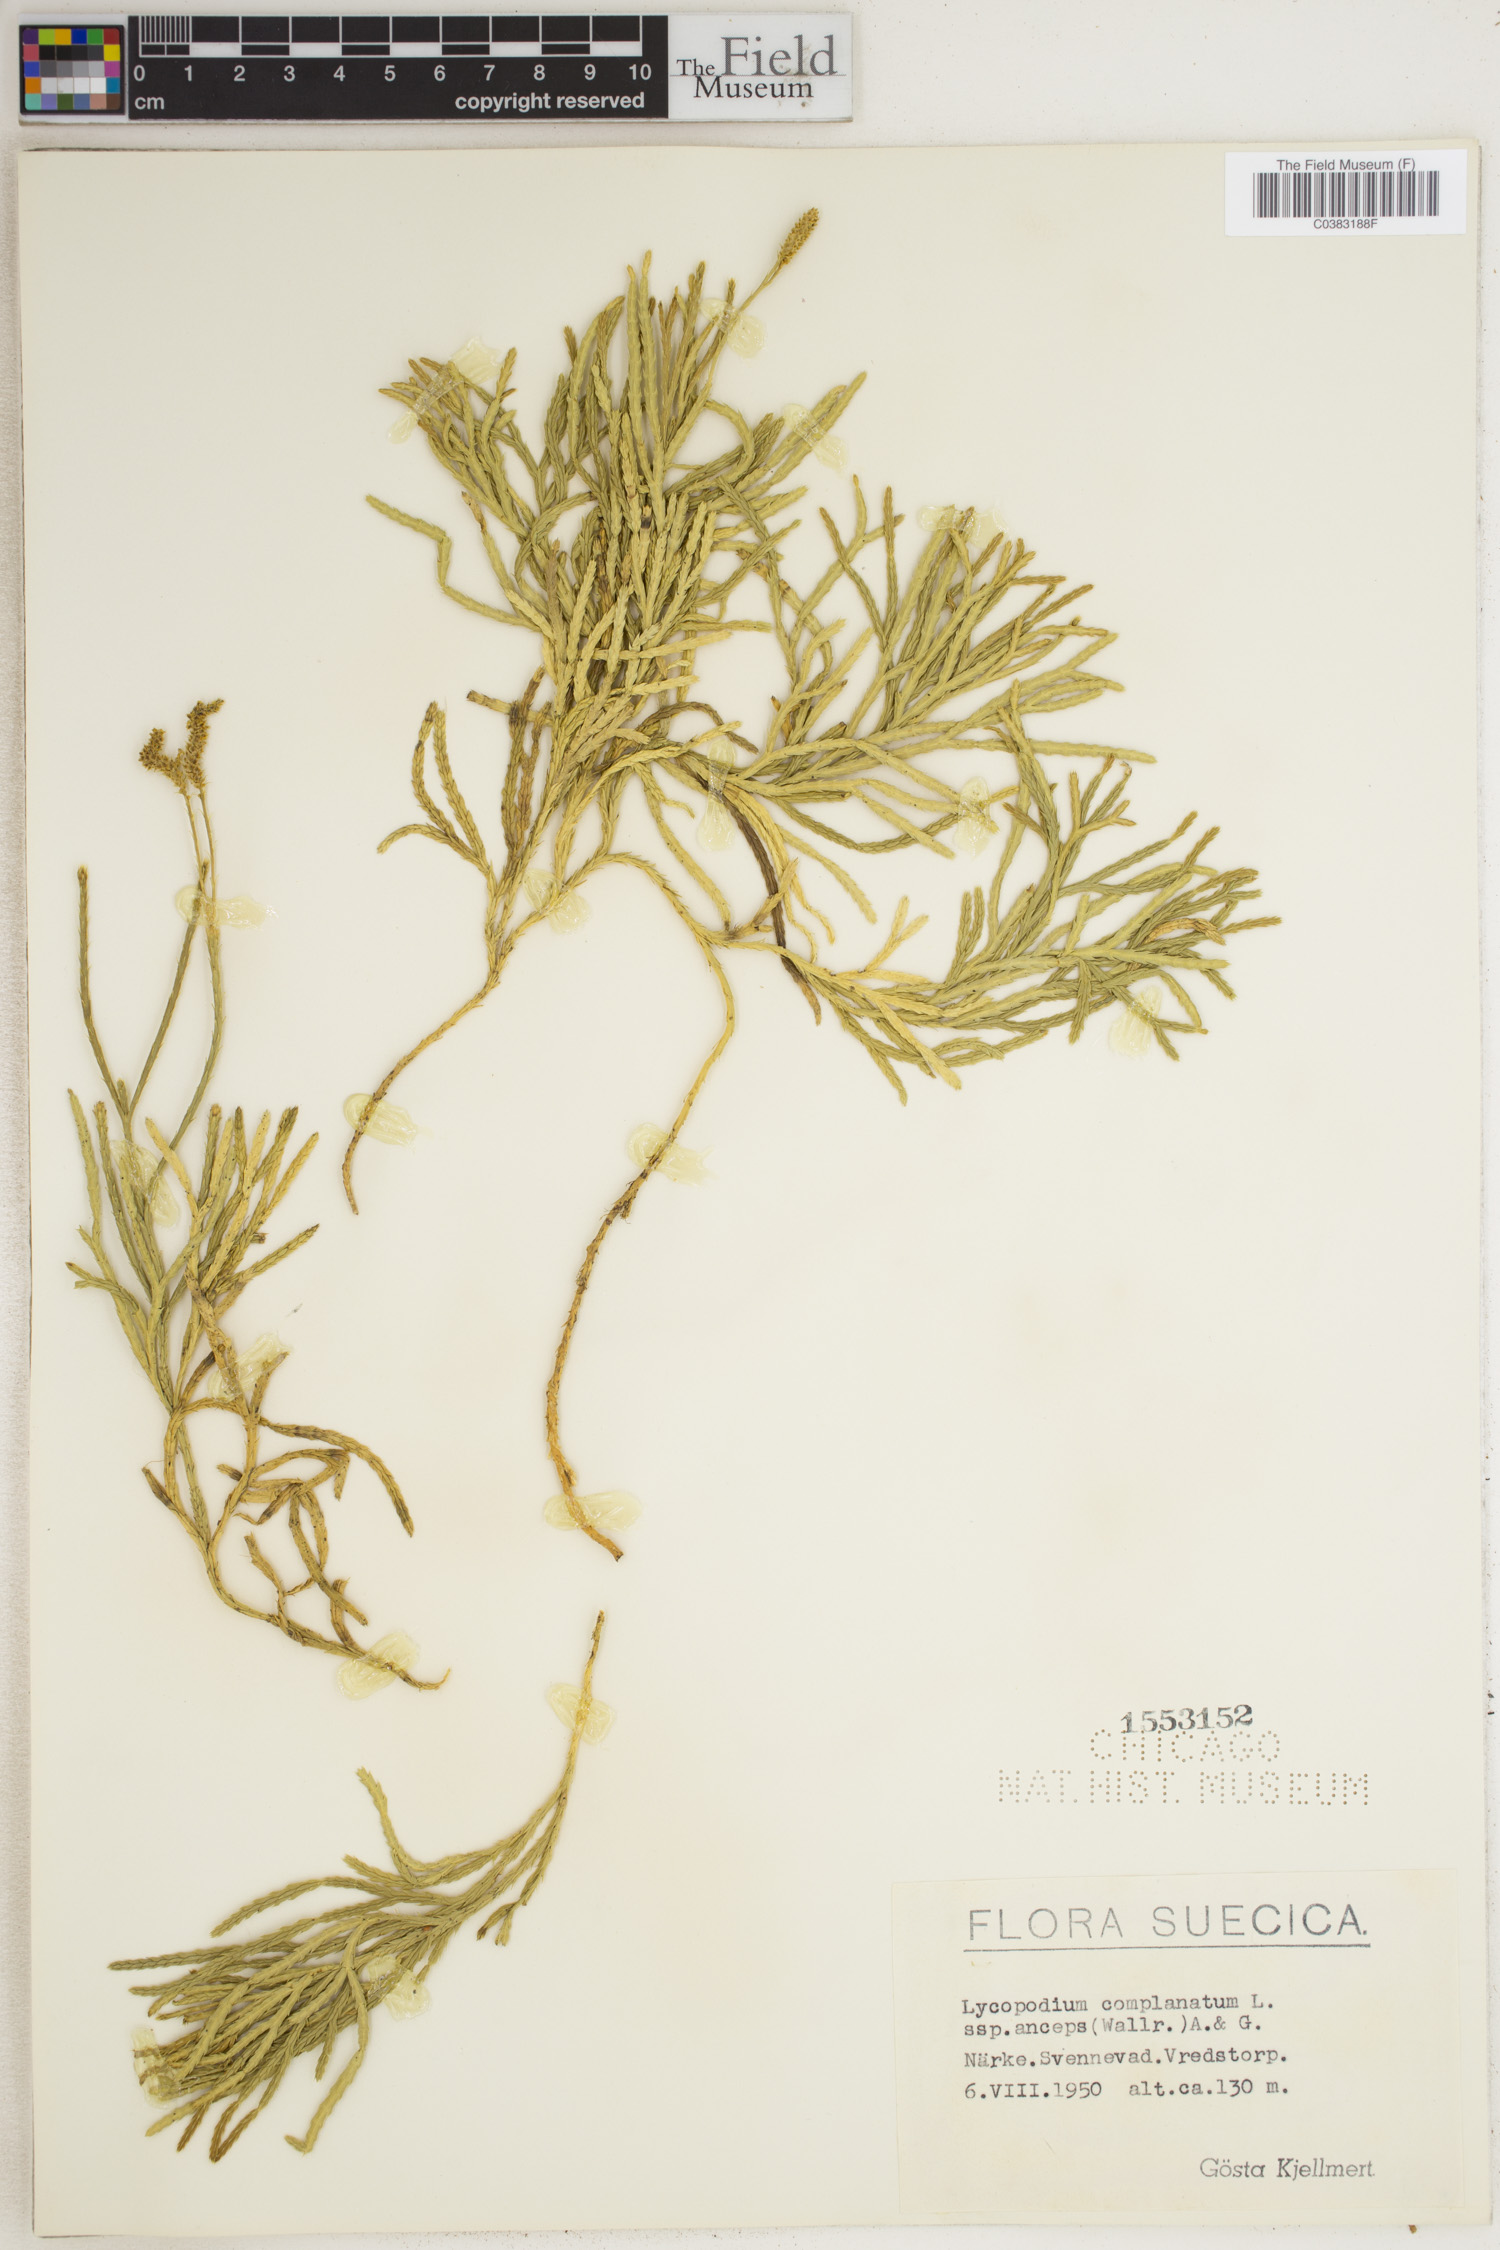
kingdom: Plantae
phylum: Tracheophyta
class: Lycopodiopsida
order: Lycopodiales
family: Lycopodiaceae
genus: Diphasiastrum
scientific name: Diphasiastrum complanatum
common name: Northern running-pine
